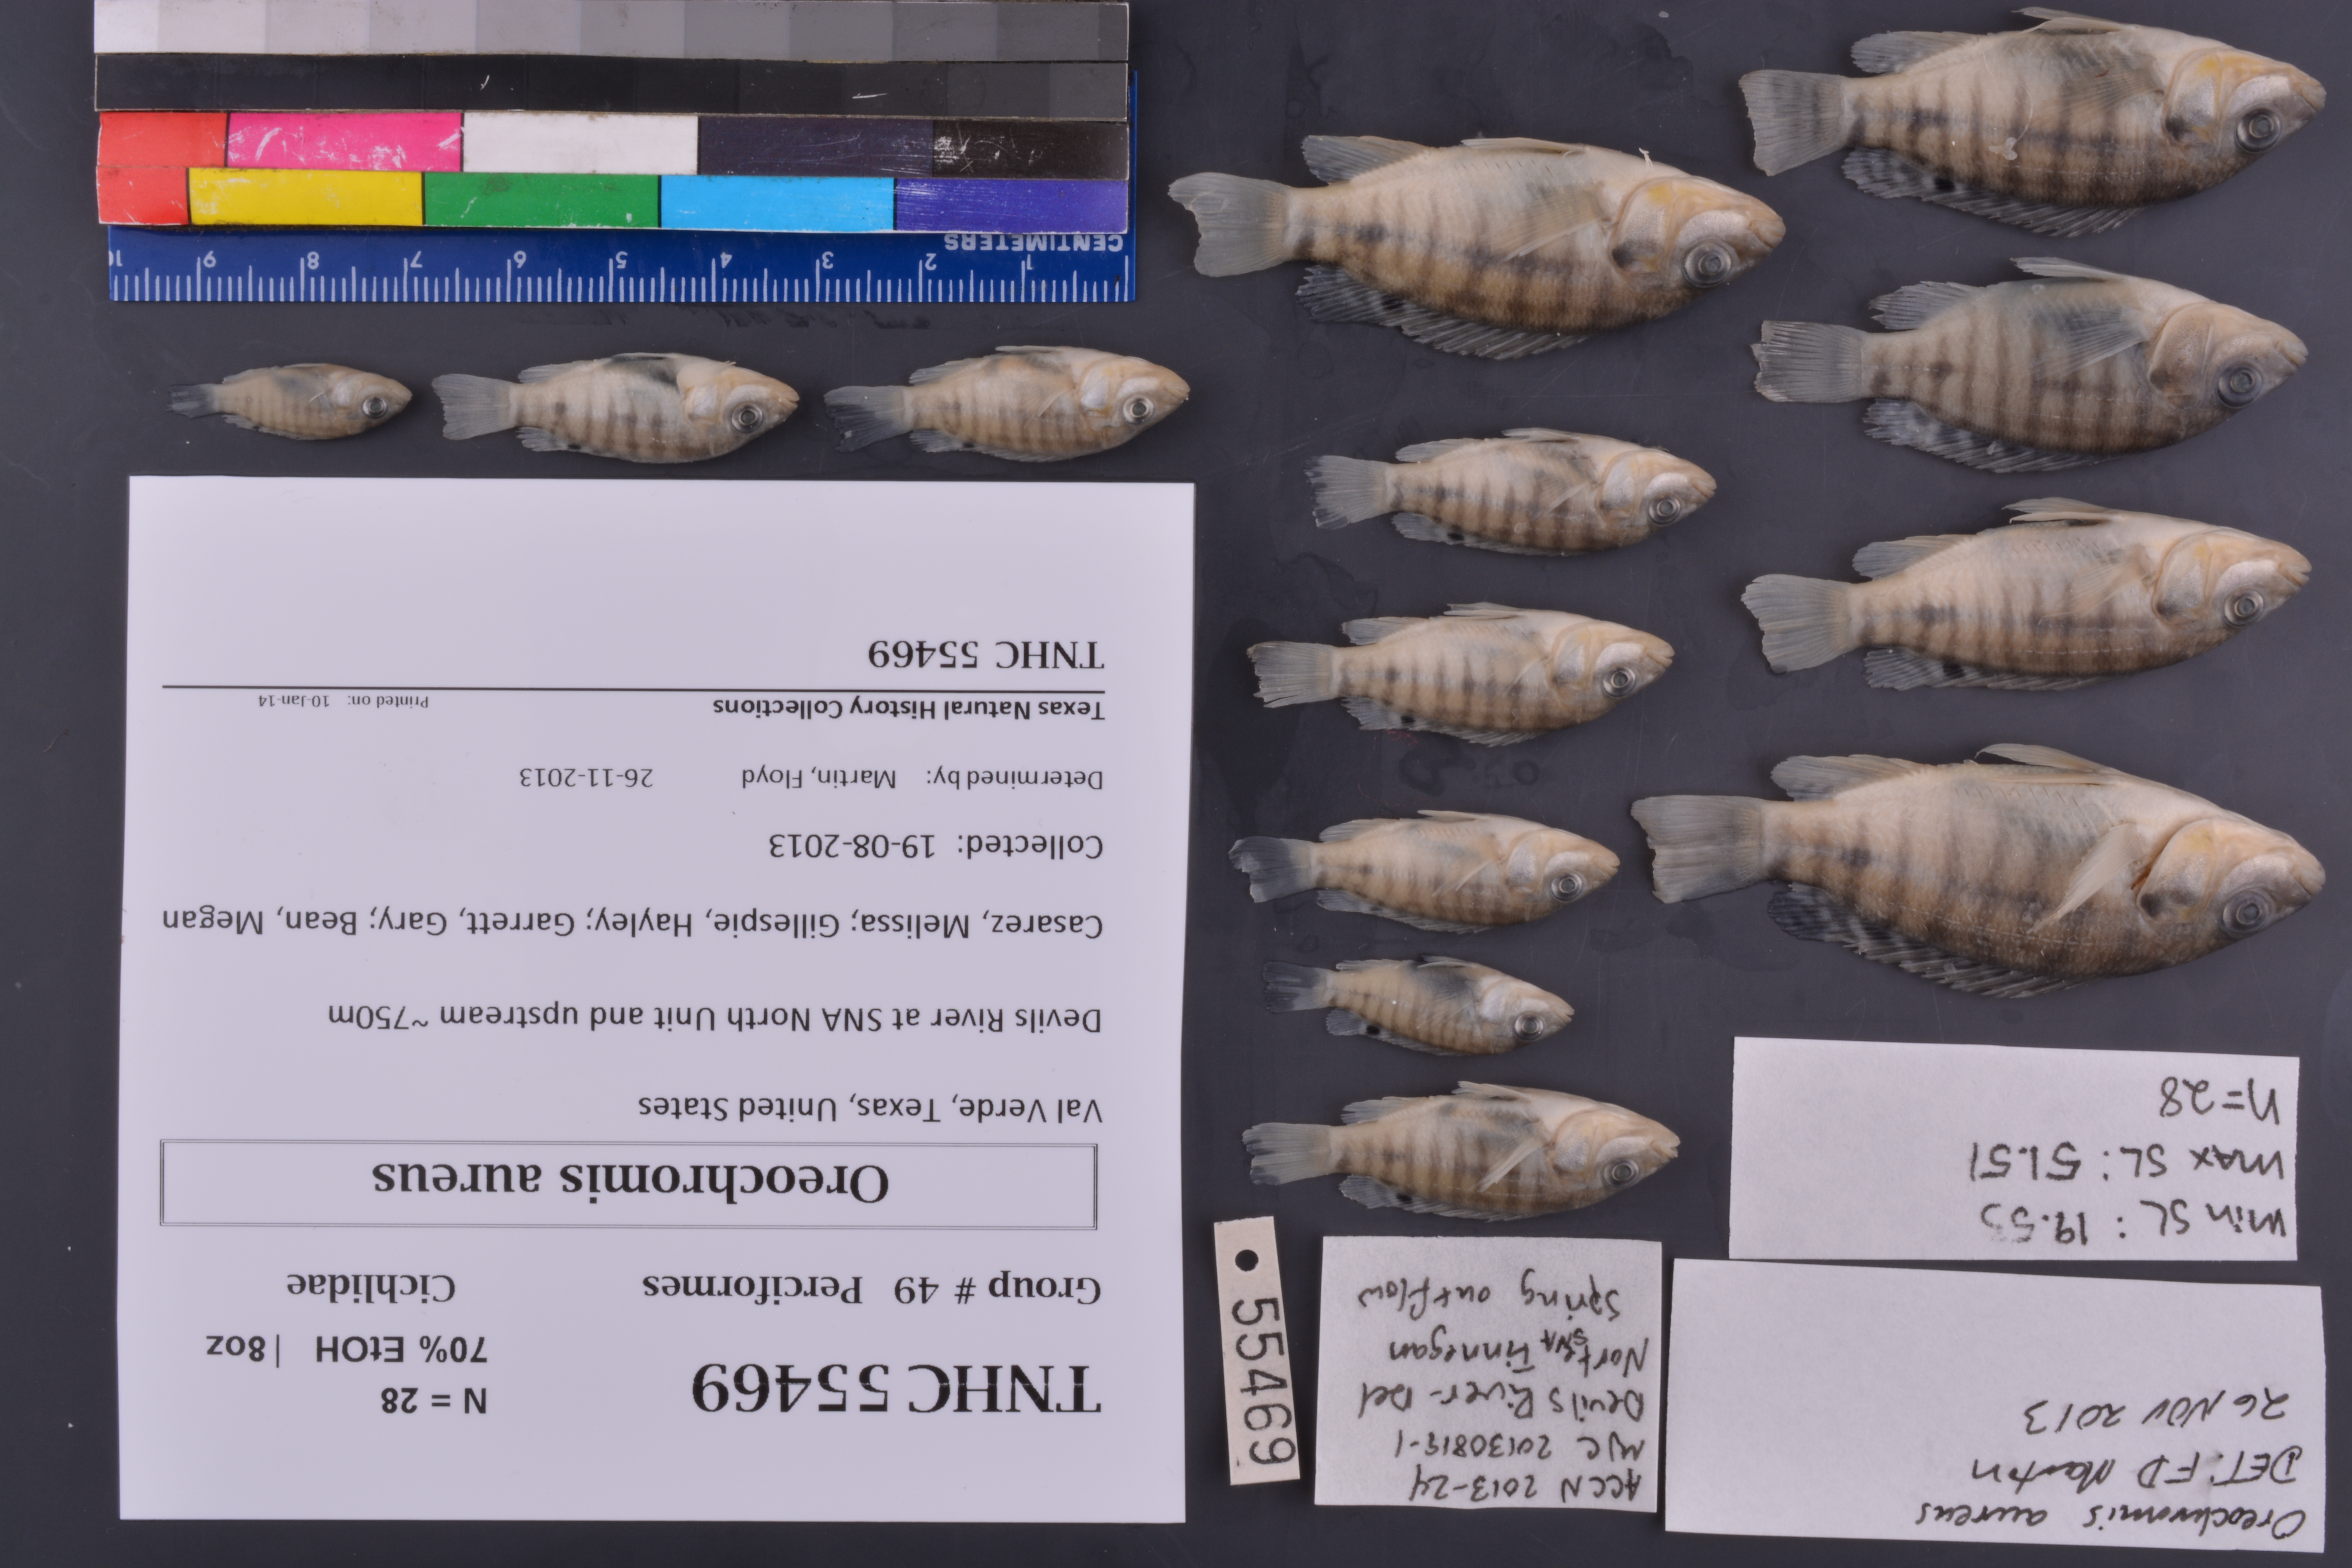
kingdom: Animalia
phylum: Chordata
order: Perciformes
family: Cichlidae
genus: Oreochromis
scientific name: Oreochromis aureus
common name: Blue tilapia
